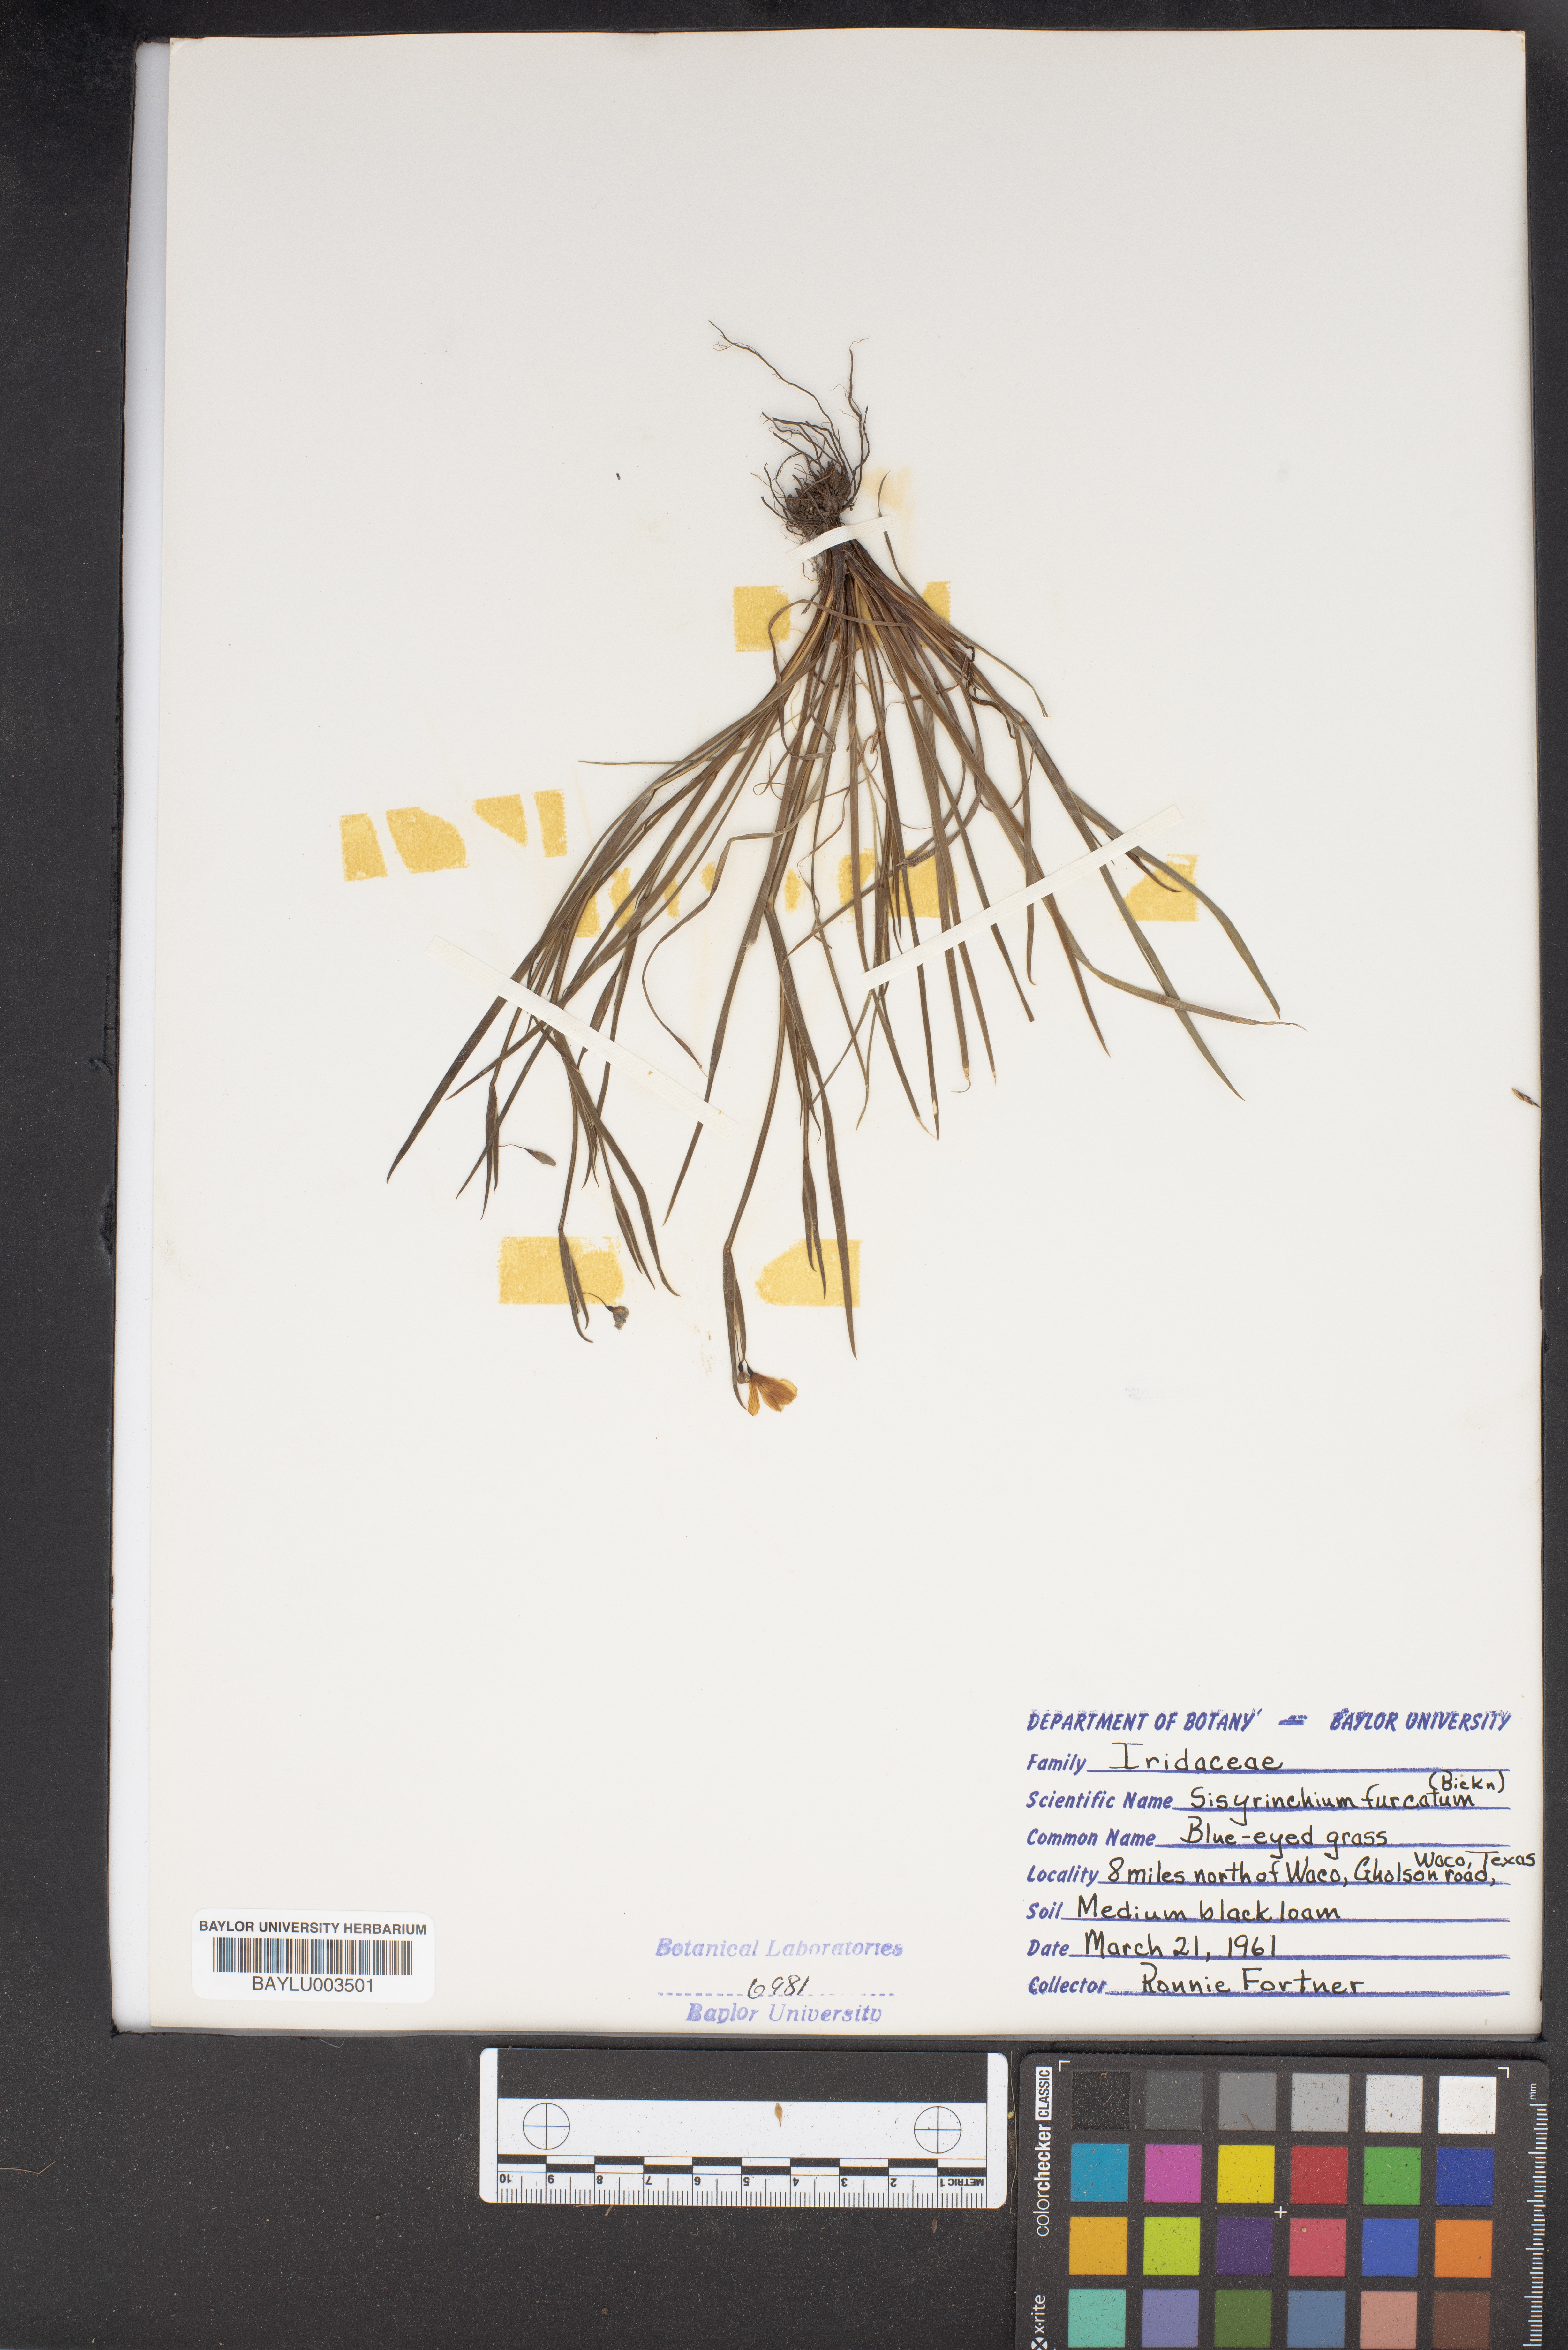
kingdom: Plantae
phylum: Tracheophyta
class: Liliopsida
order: Asparagales
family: Iridaceae
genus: Sisyrinchium
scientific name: Sisyrinchium fuscatum
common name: Coastal plain blue-eyed-grass
